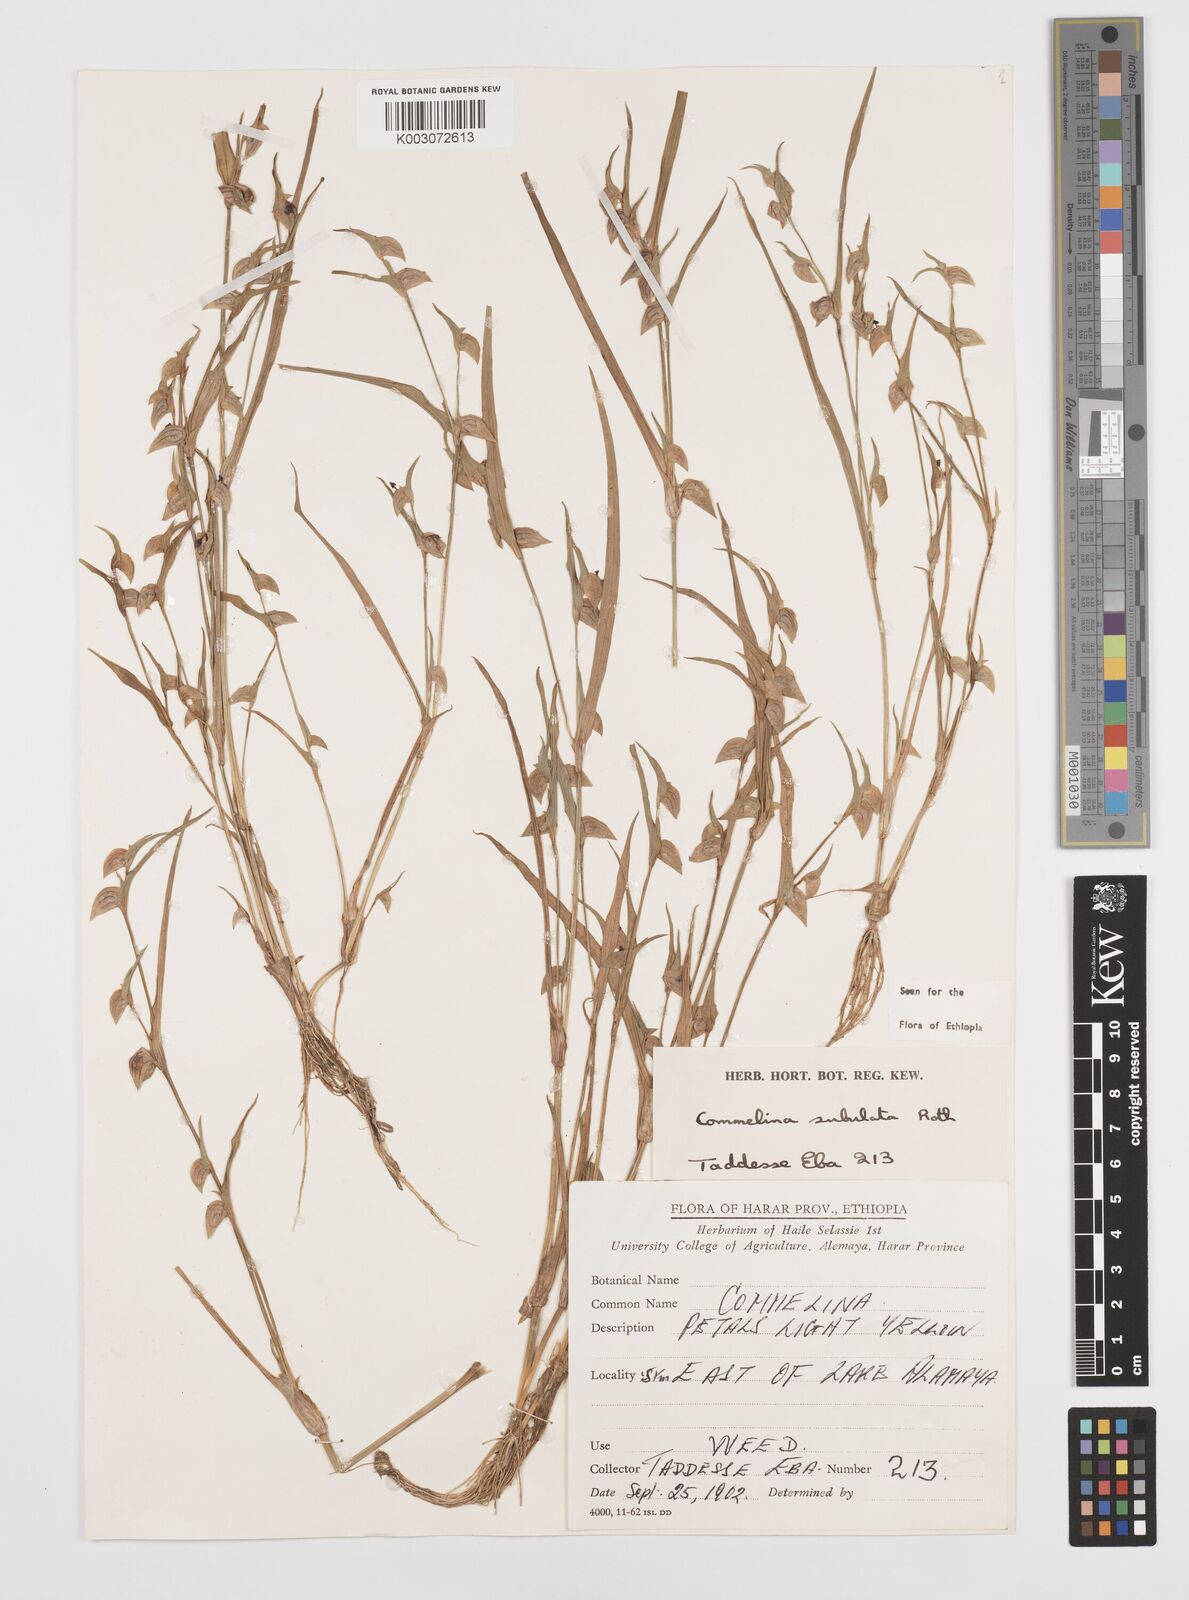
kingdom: Plantae
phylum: Tracheophyta
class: Liliopsida
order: Commelinales
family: Commelinaceae
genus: Commelina
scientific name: Commelina subulata
